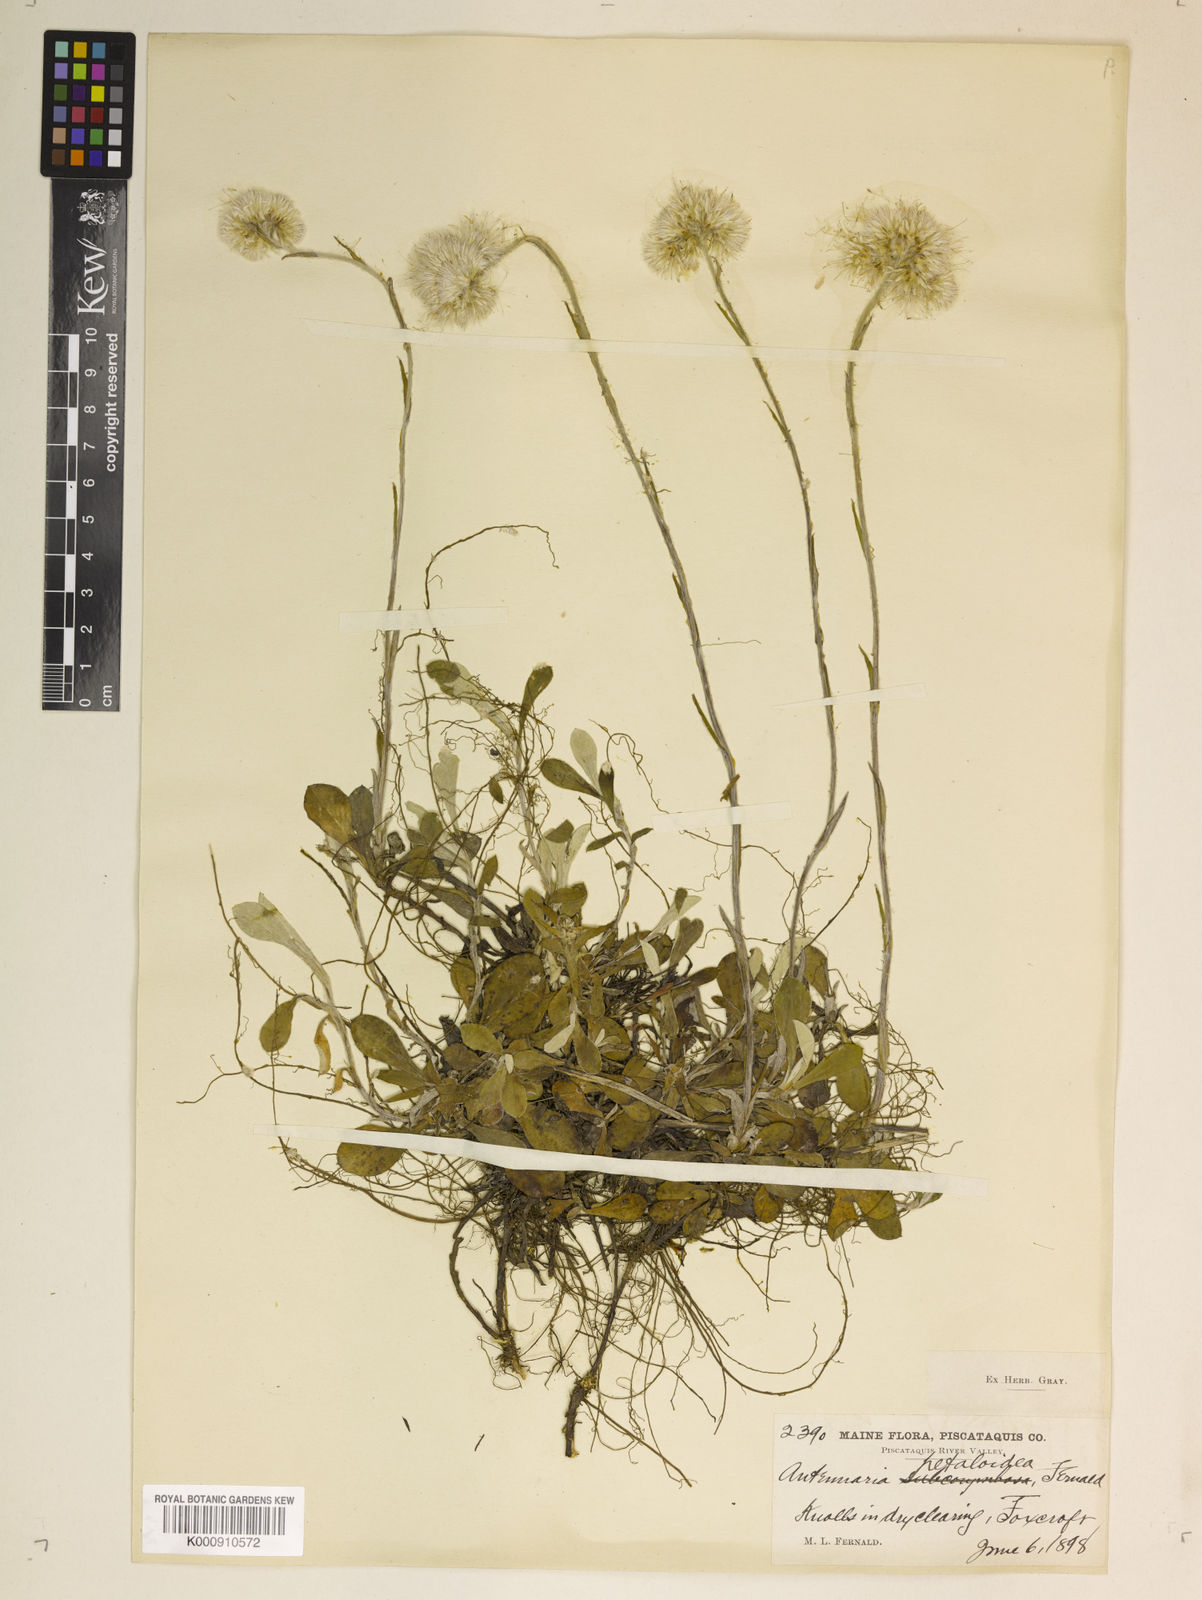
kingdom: Plantae
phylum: Tracheophyta
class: Magnoliopsida
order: Asterales
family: Asteraceae
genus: Antennaria
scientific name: Antennaria howellii
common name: Howell's pussytoes
